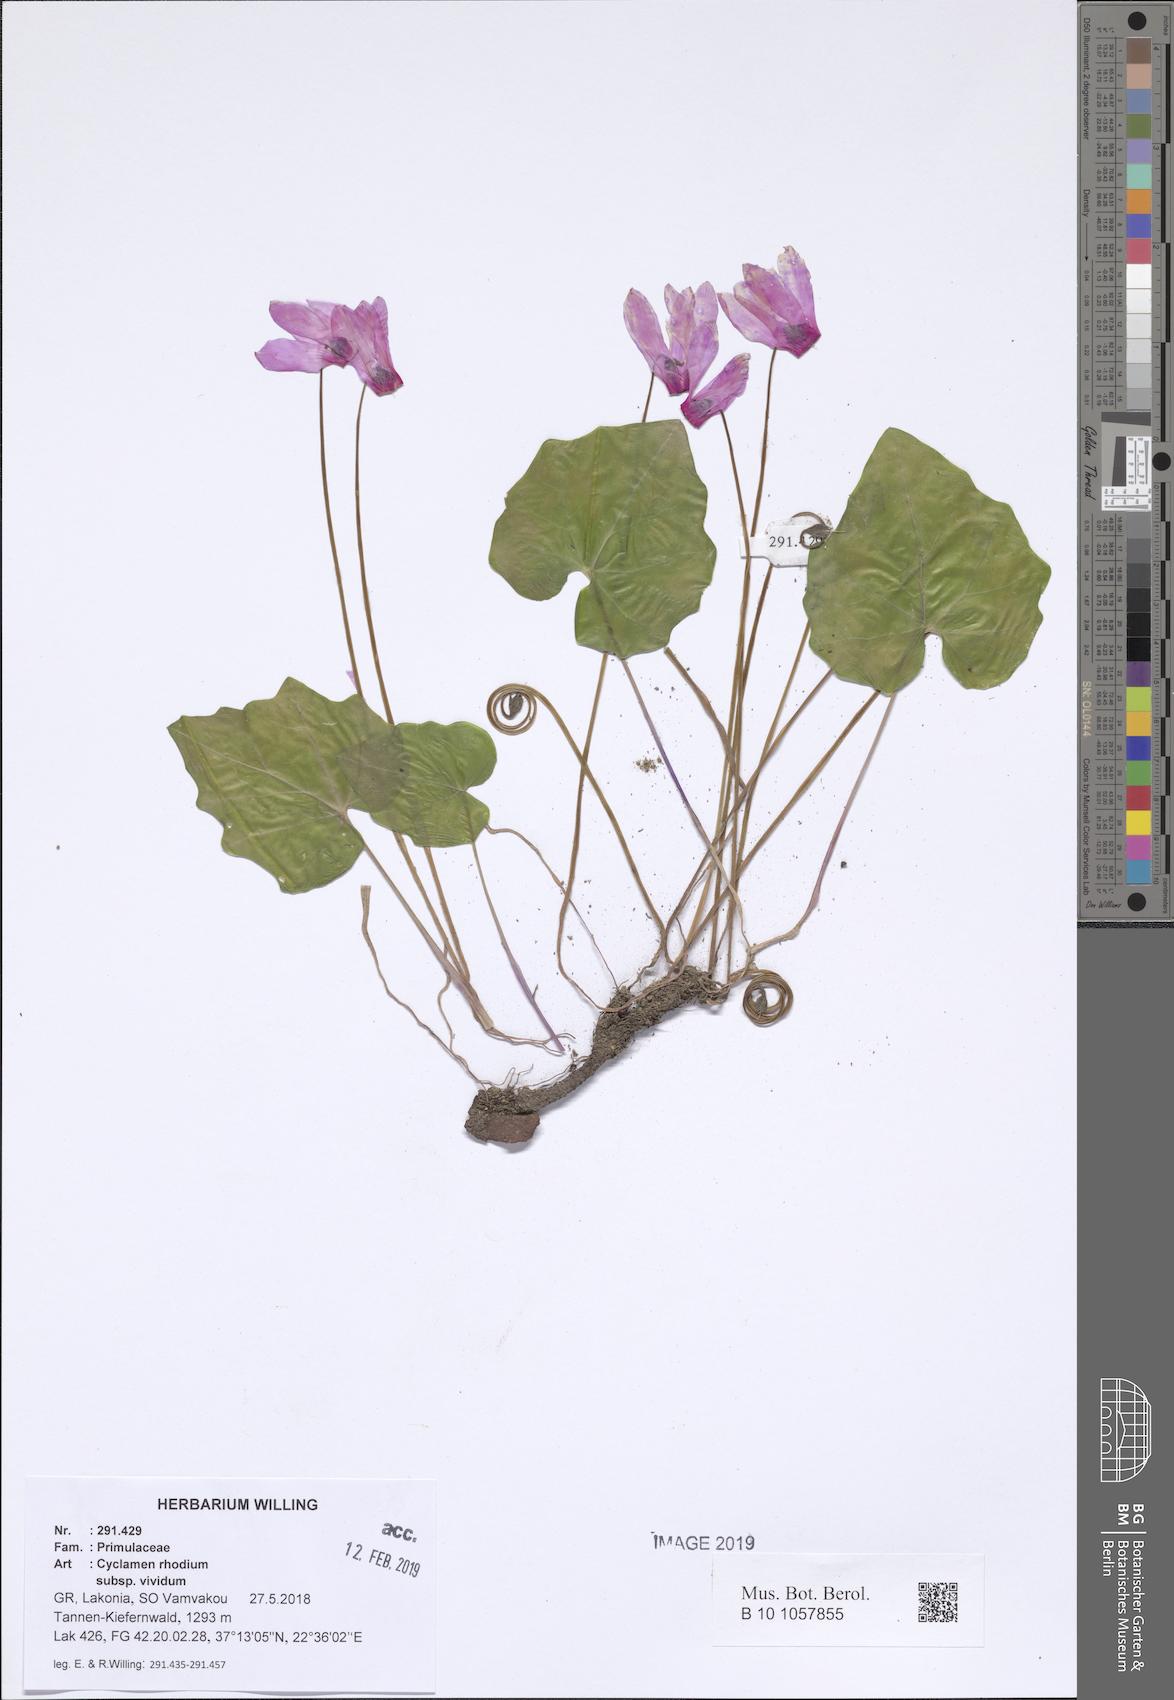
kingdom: Plantae
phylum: Tracheophyta
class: Magnoliopsida
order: Ericales
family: Primulaceae
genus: Cyclamen
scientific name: Cyclamen repandum
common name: Spring sowbread
